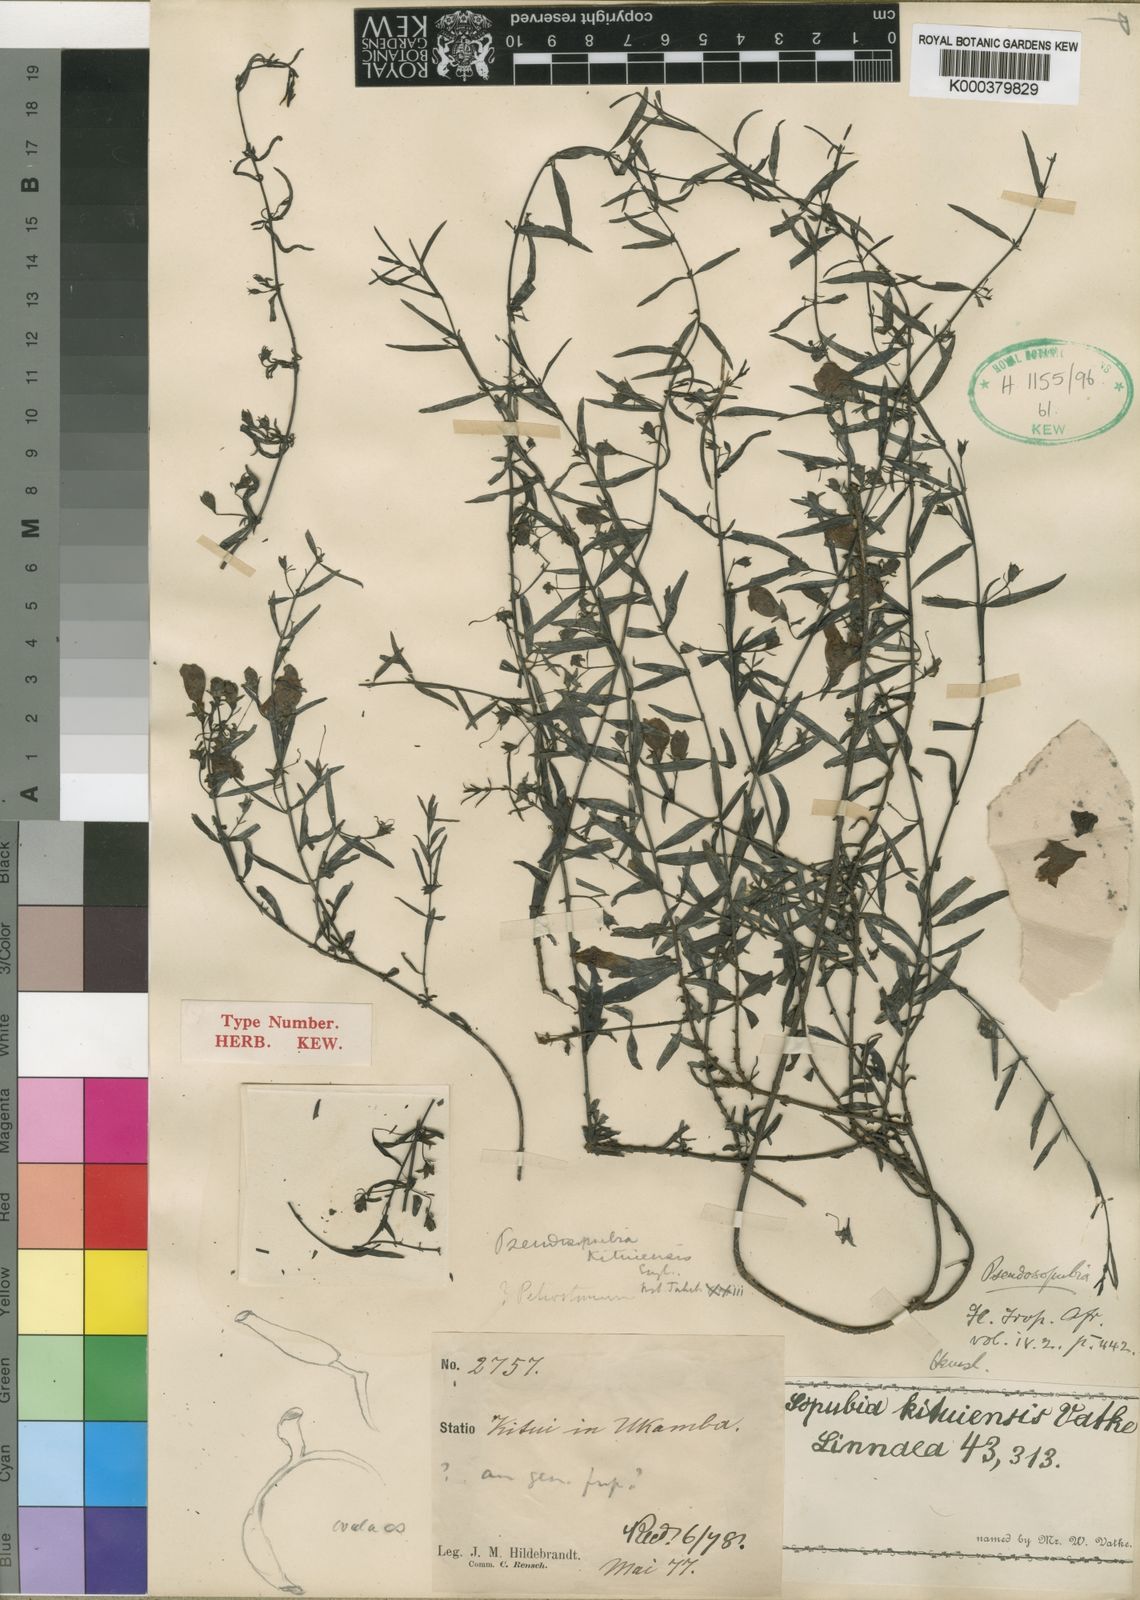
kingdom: Plantae
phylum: Tracheophyta
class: Magnoliopsida
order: Lamiales
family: Orobanchaceae
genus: Pseudosopubia
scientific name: Pseudosopubia hildebrandtii
